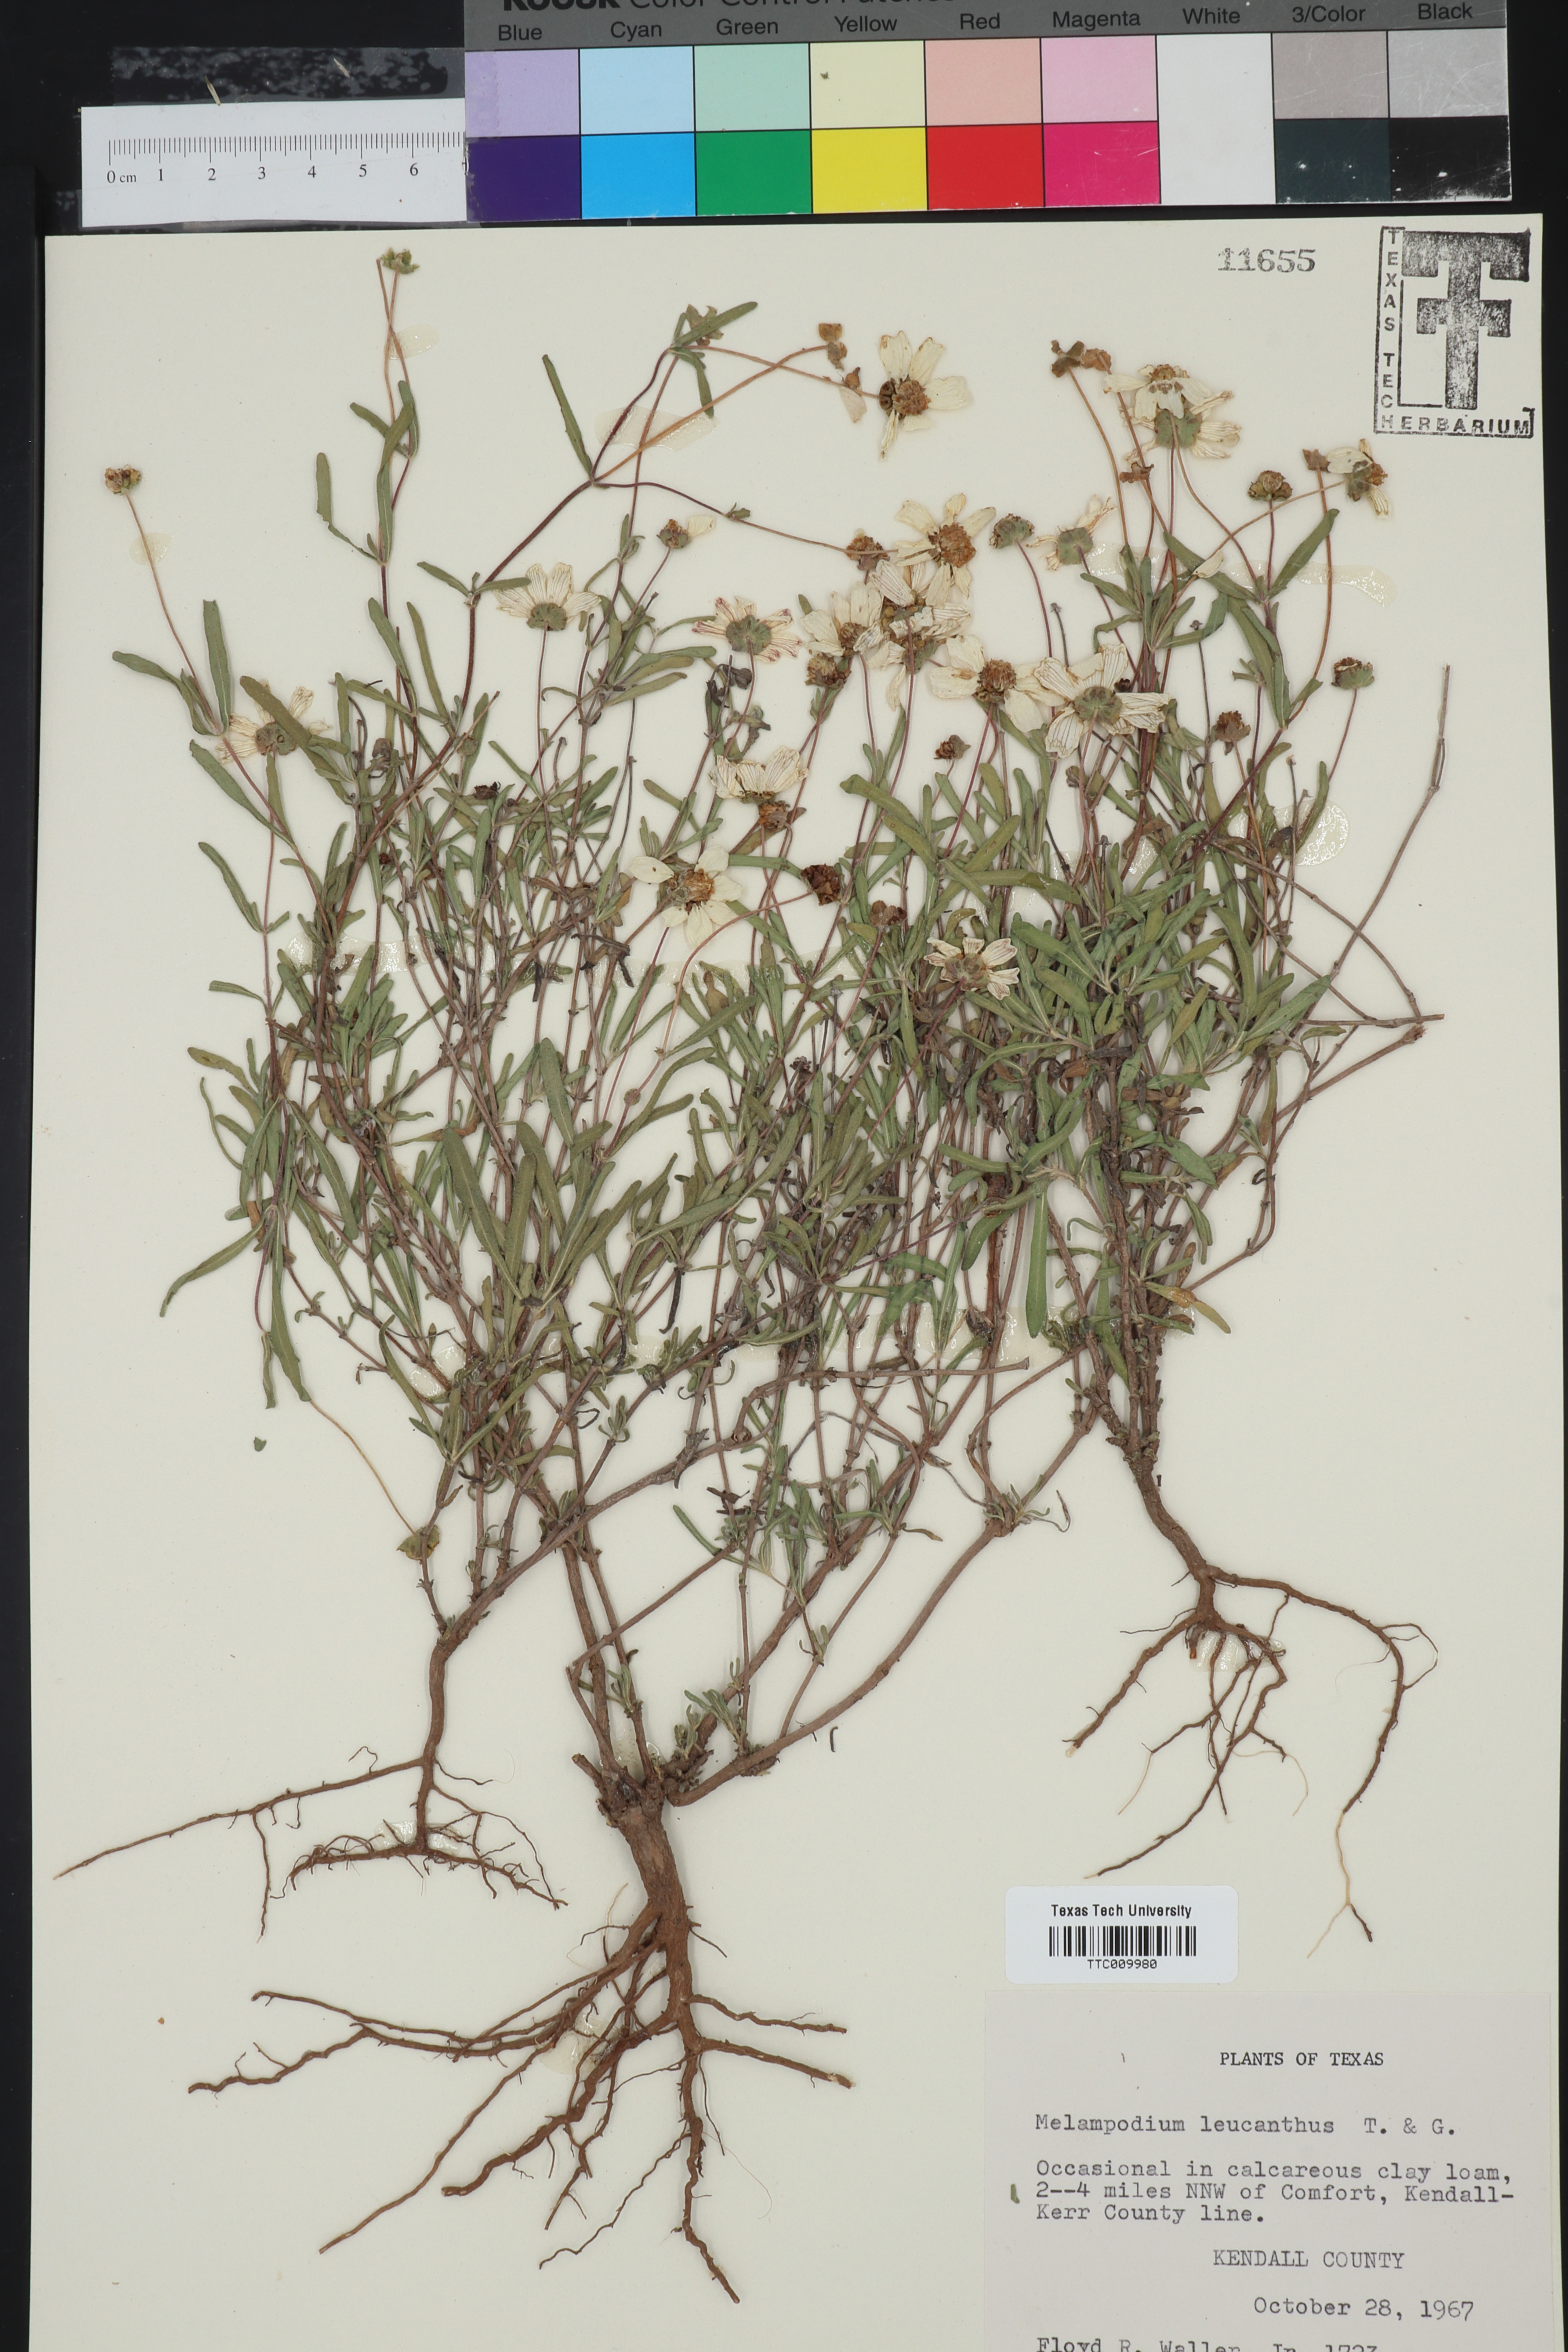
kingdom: Plantae
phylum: Tracheophyta
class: Magnoliopsida
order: Asterales
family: Asteraceae
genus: Melampodium
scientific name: Melampodium leucanthum
